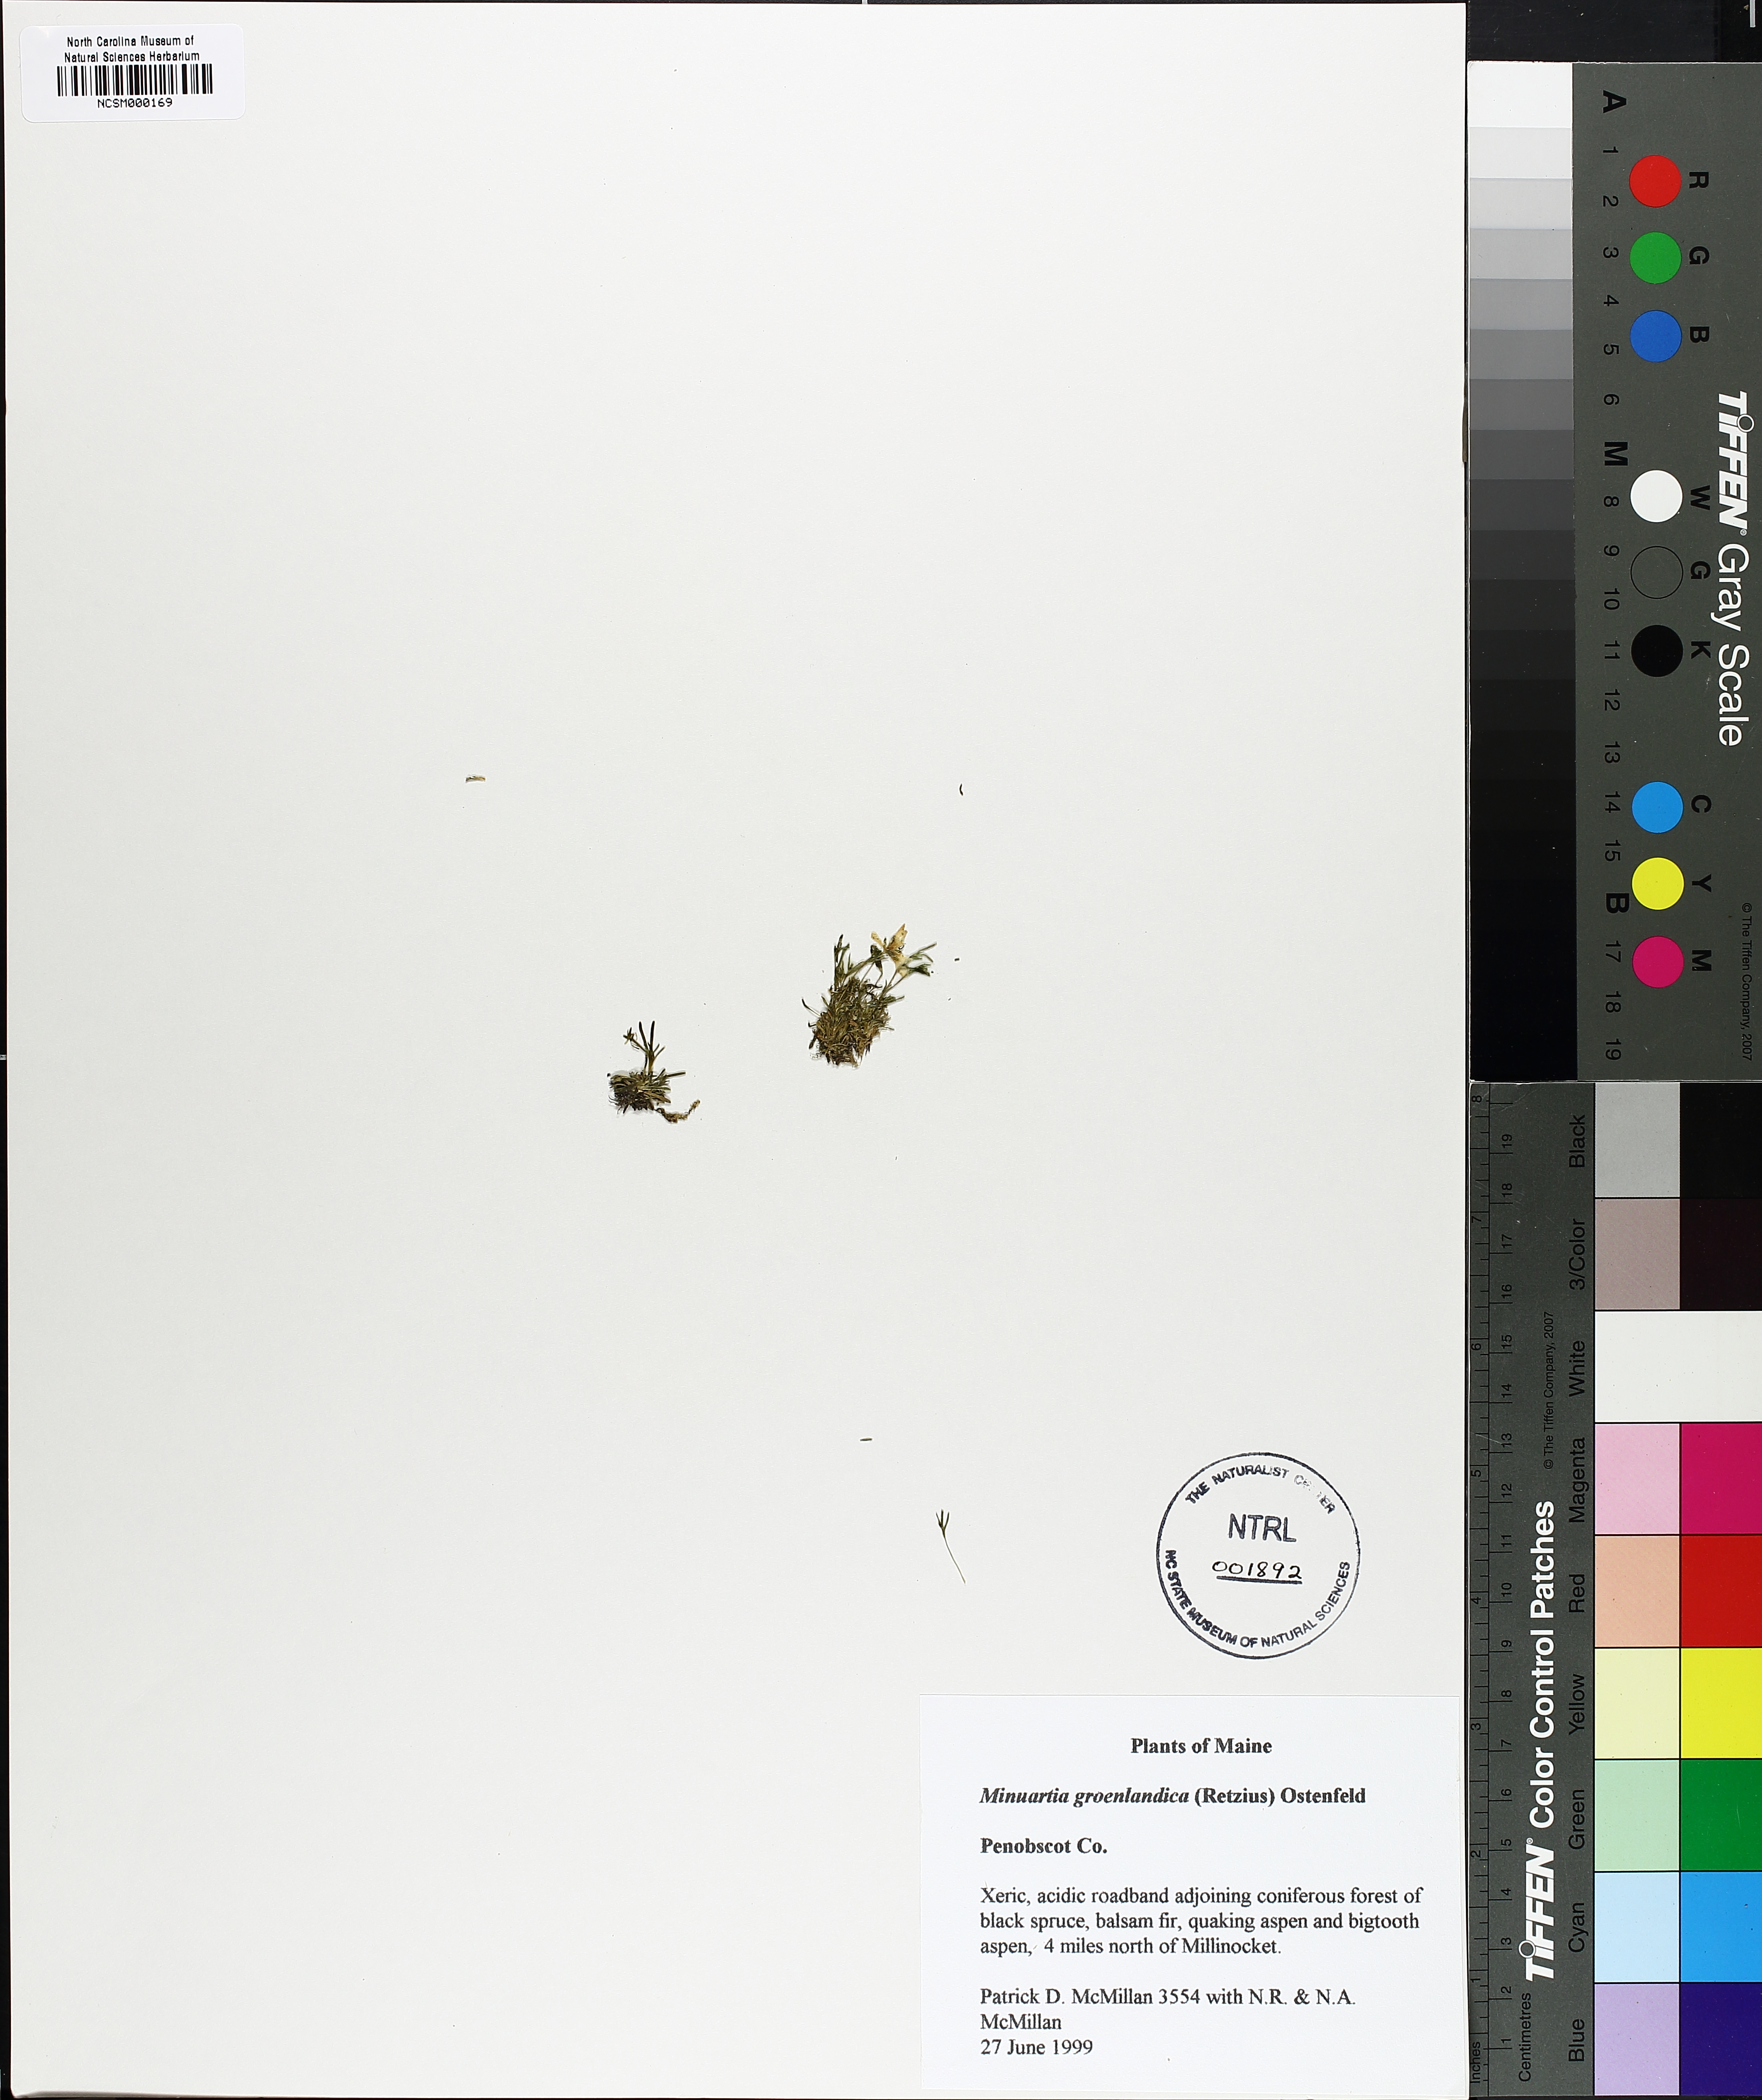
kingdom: Plantae
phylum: Tracheophyta
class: Magnoliopsida
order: Caryophyllales
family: Caryophyllaceae
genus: Geocarpon
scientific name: Geocarpon groenlandicum
